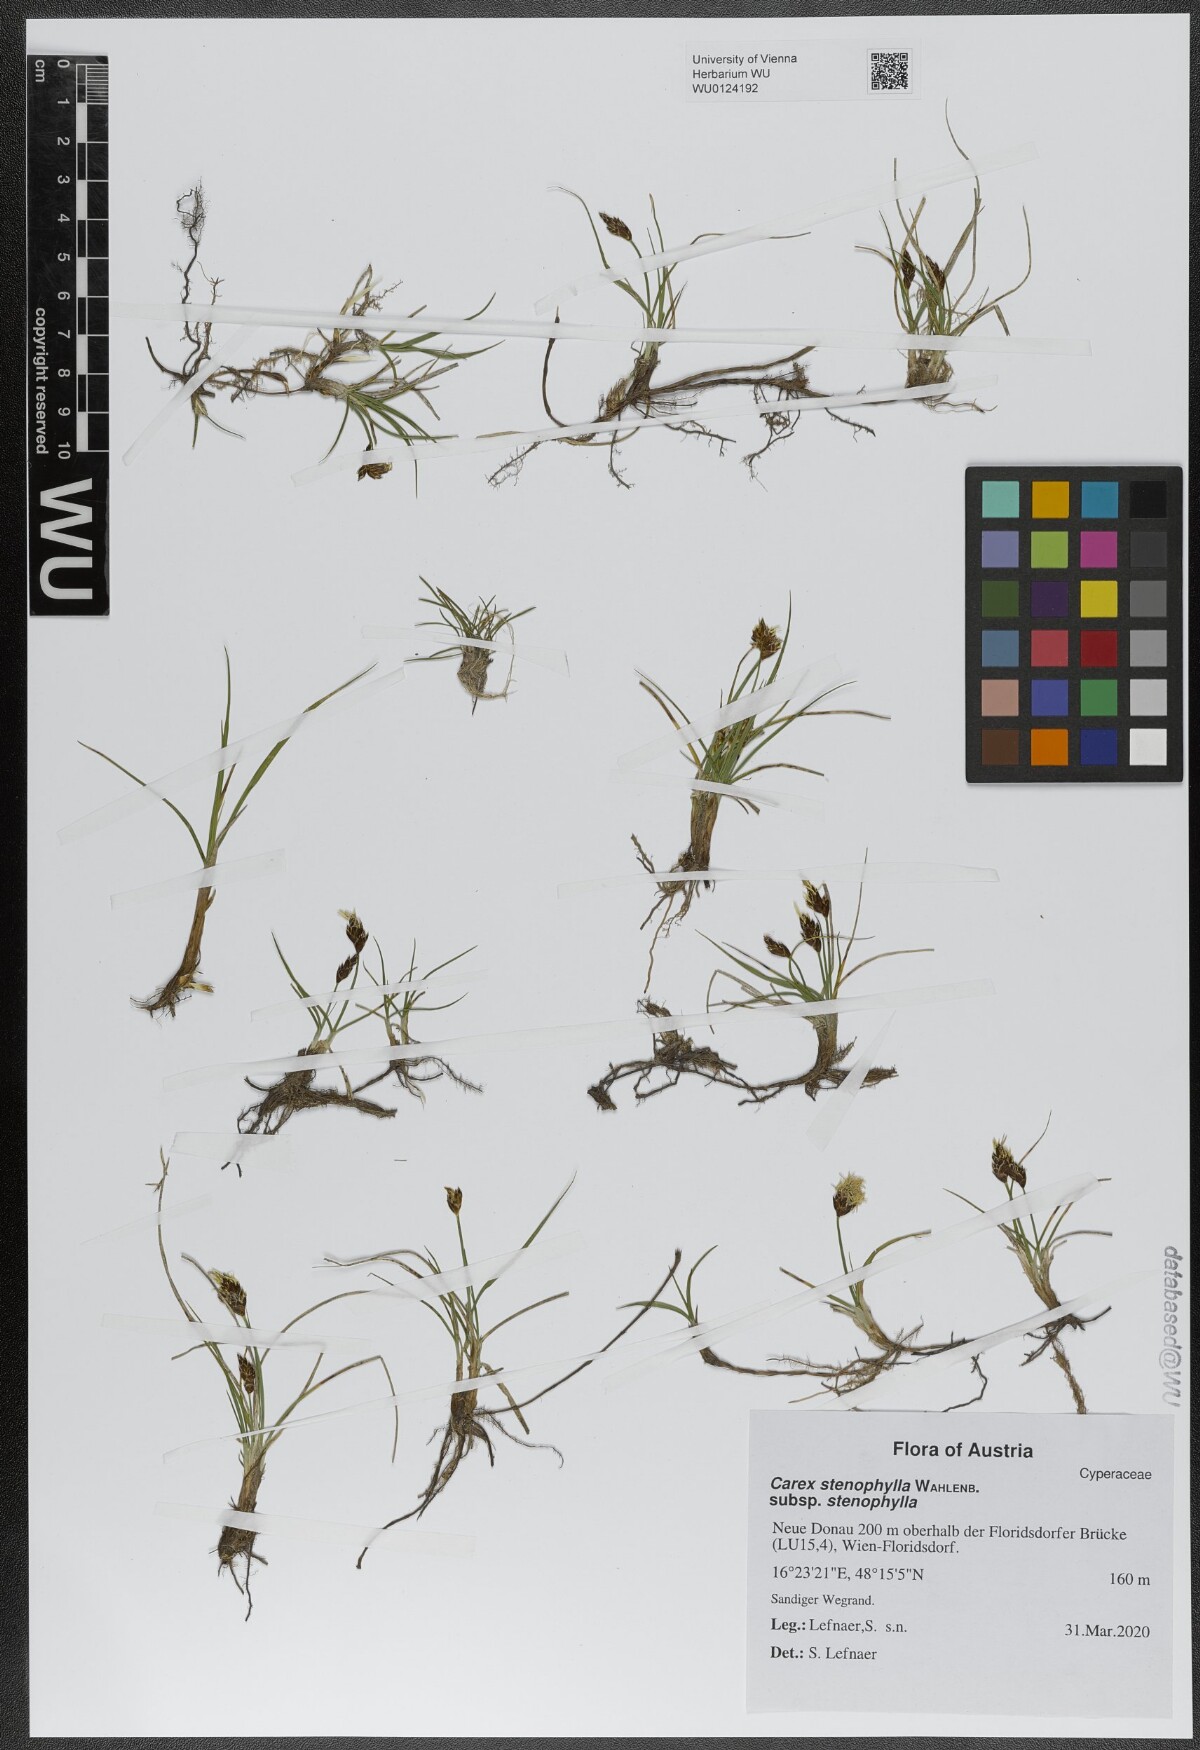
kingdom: Plantae
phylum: Tracheophyta
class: Liliopsida
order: Poales
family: Cyperaceae
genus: Carex
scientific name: Carex stenophylla
